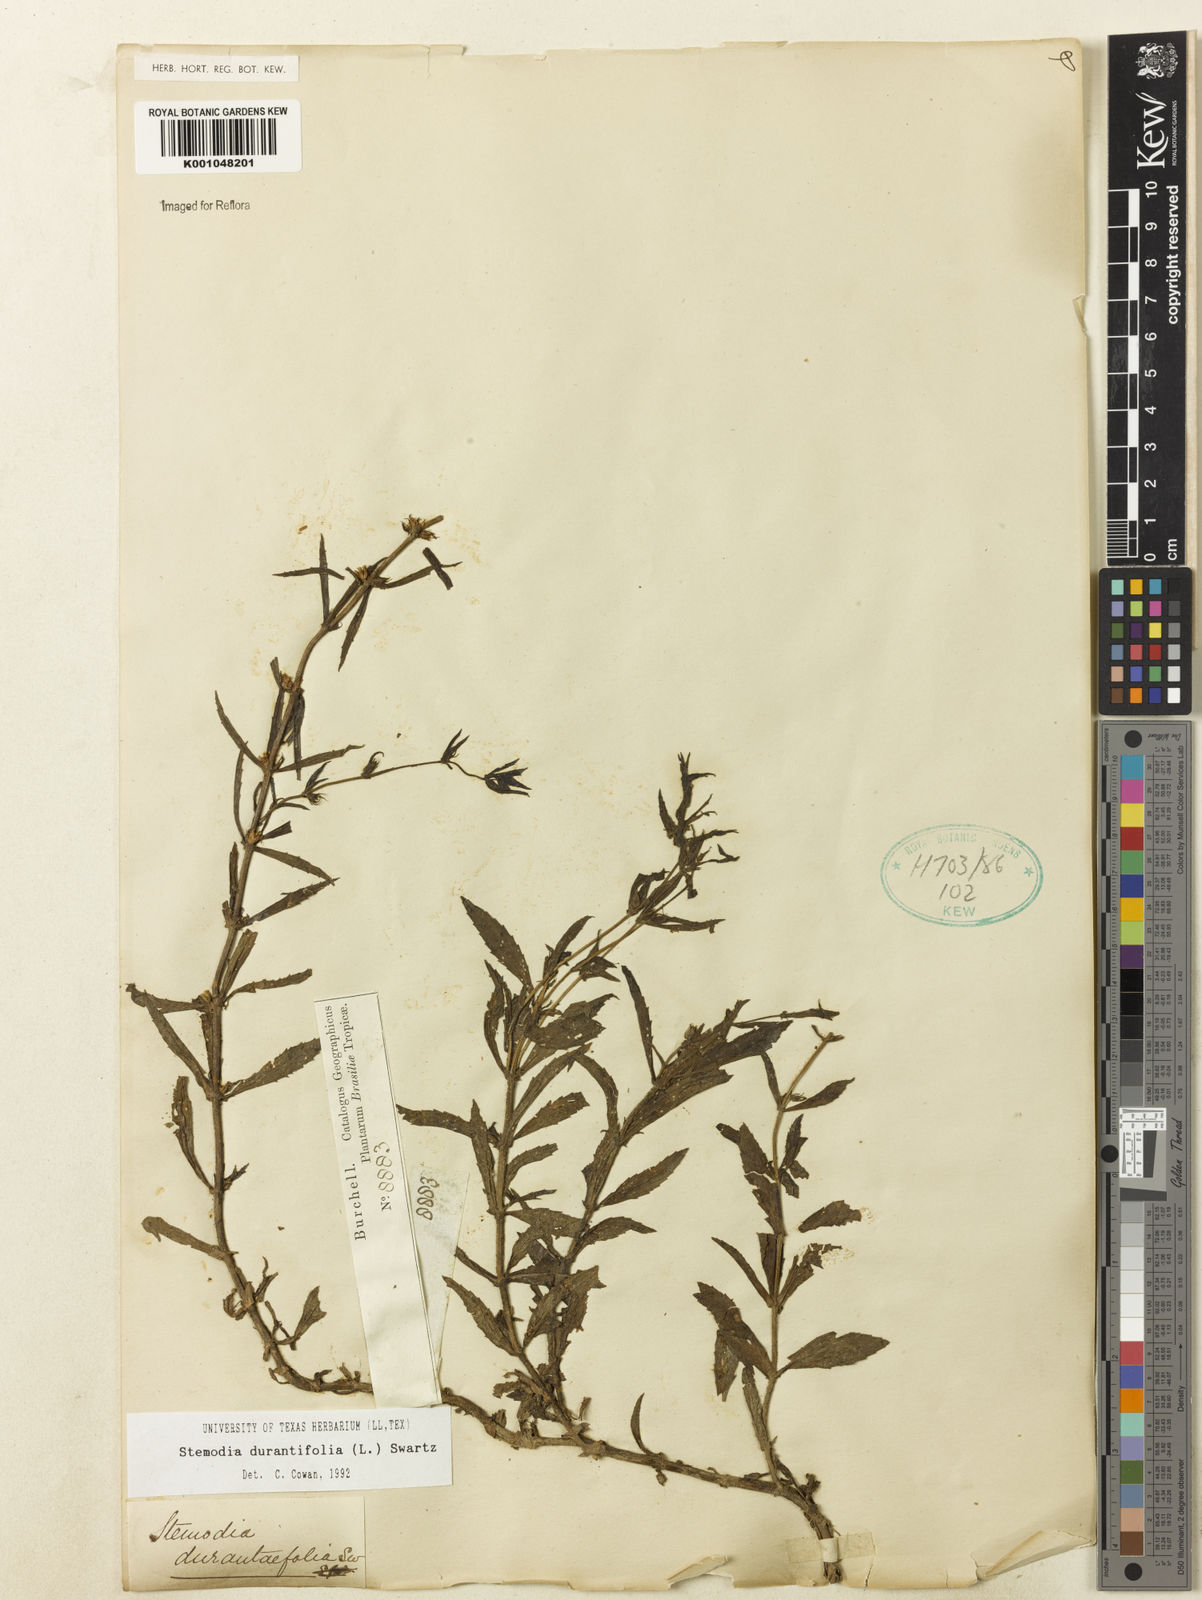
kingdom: Plantae
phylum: Tracheophyta
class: Magnoliopsida
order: Lamiales
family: Plantaginaceae
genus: Stemodia
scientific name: Stemodia durantifolia
